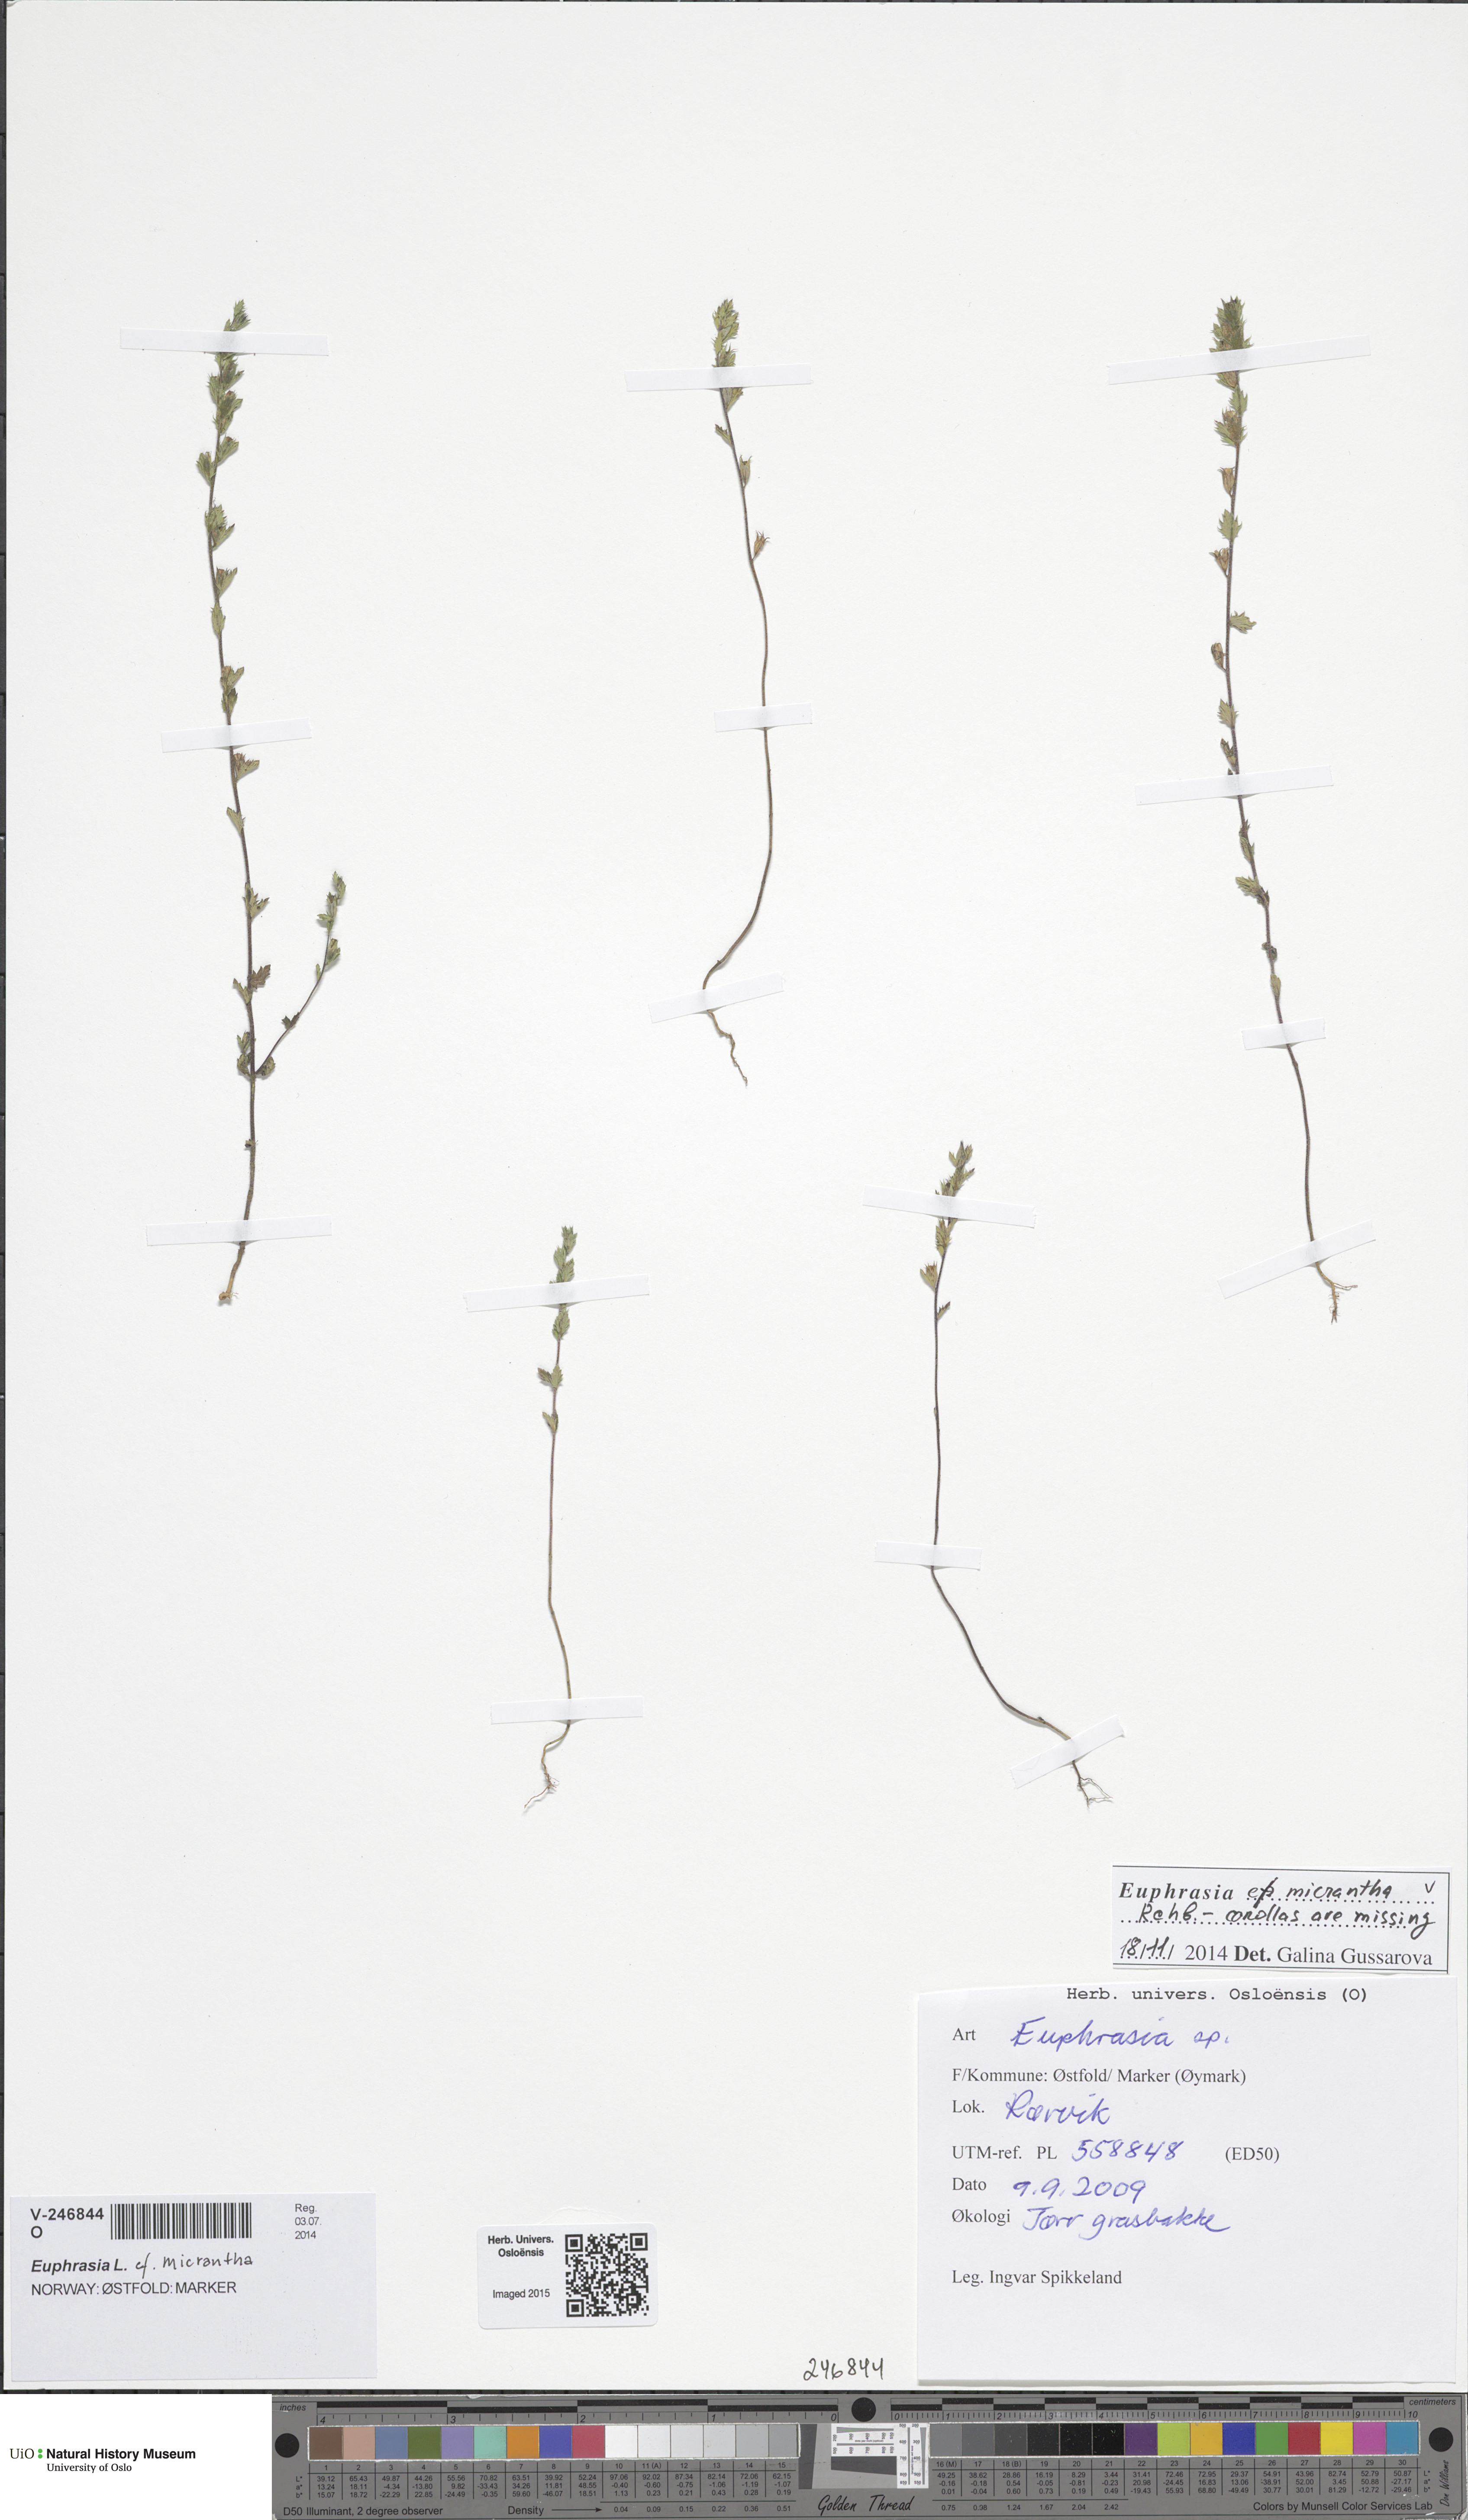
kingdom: Plantae
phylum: Tracheophyta
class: Magnoliopsida
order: Lamiales
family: Orobanchaceae
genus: Euphrasia
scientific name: Euphrasia micrantha
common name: Northern eyebright
